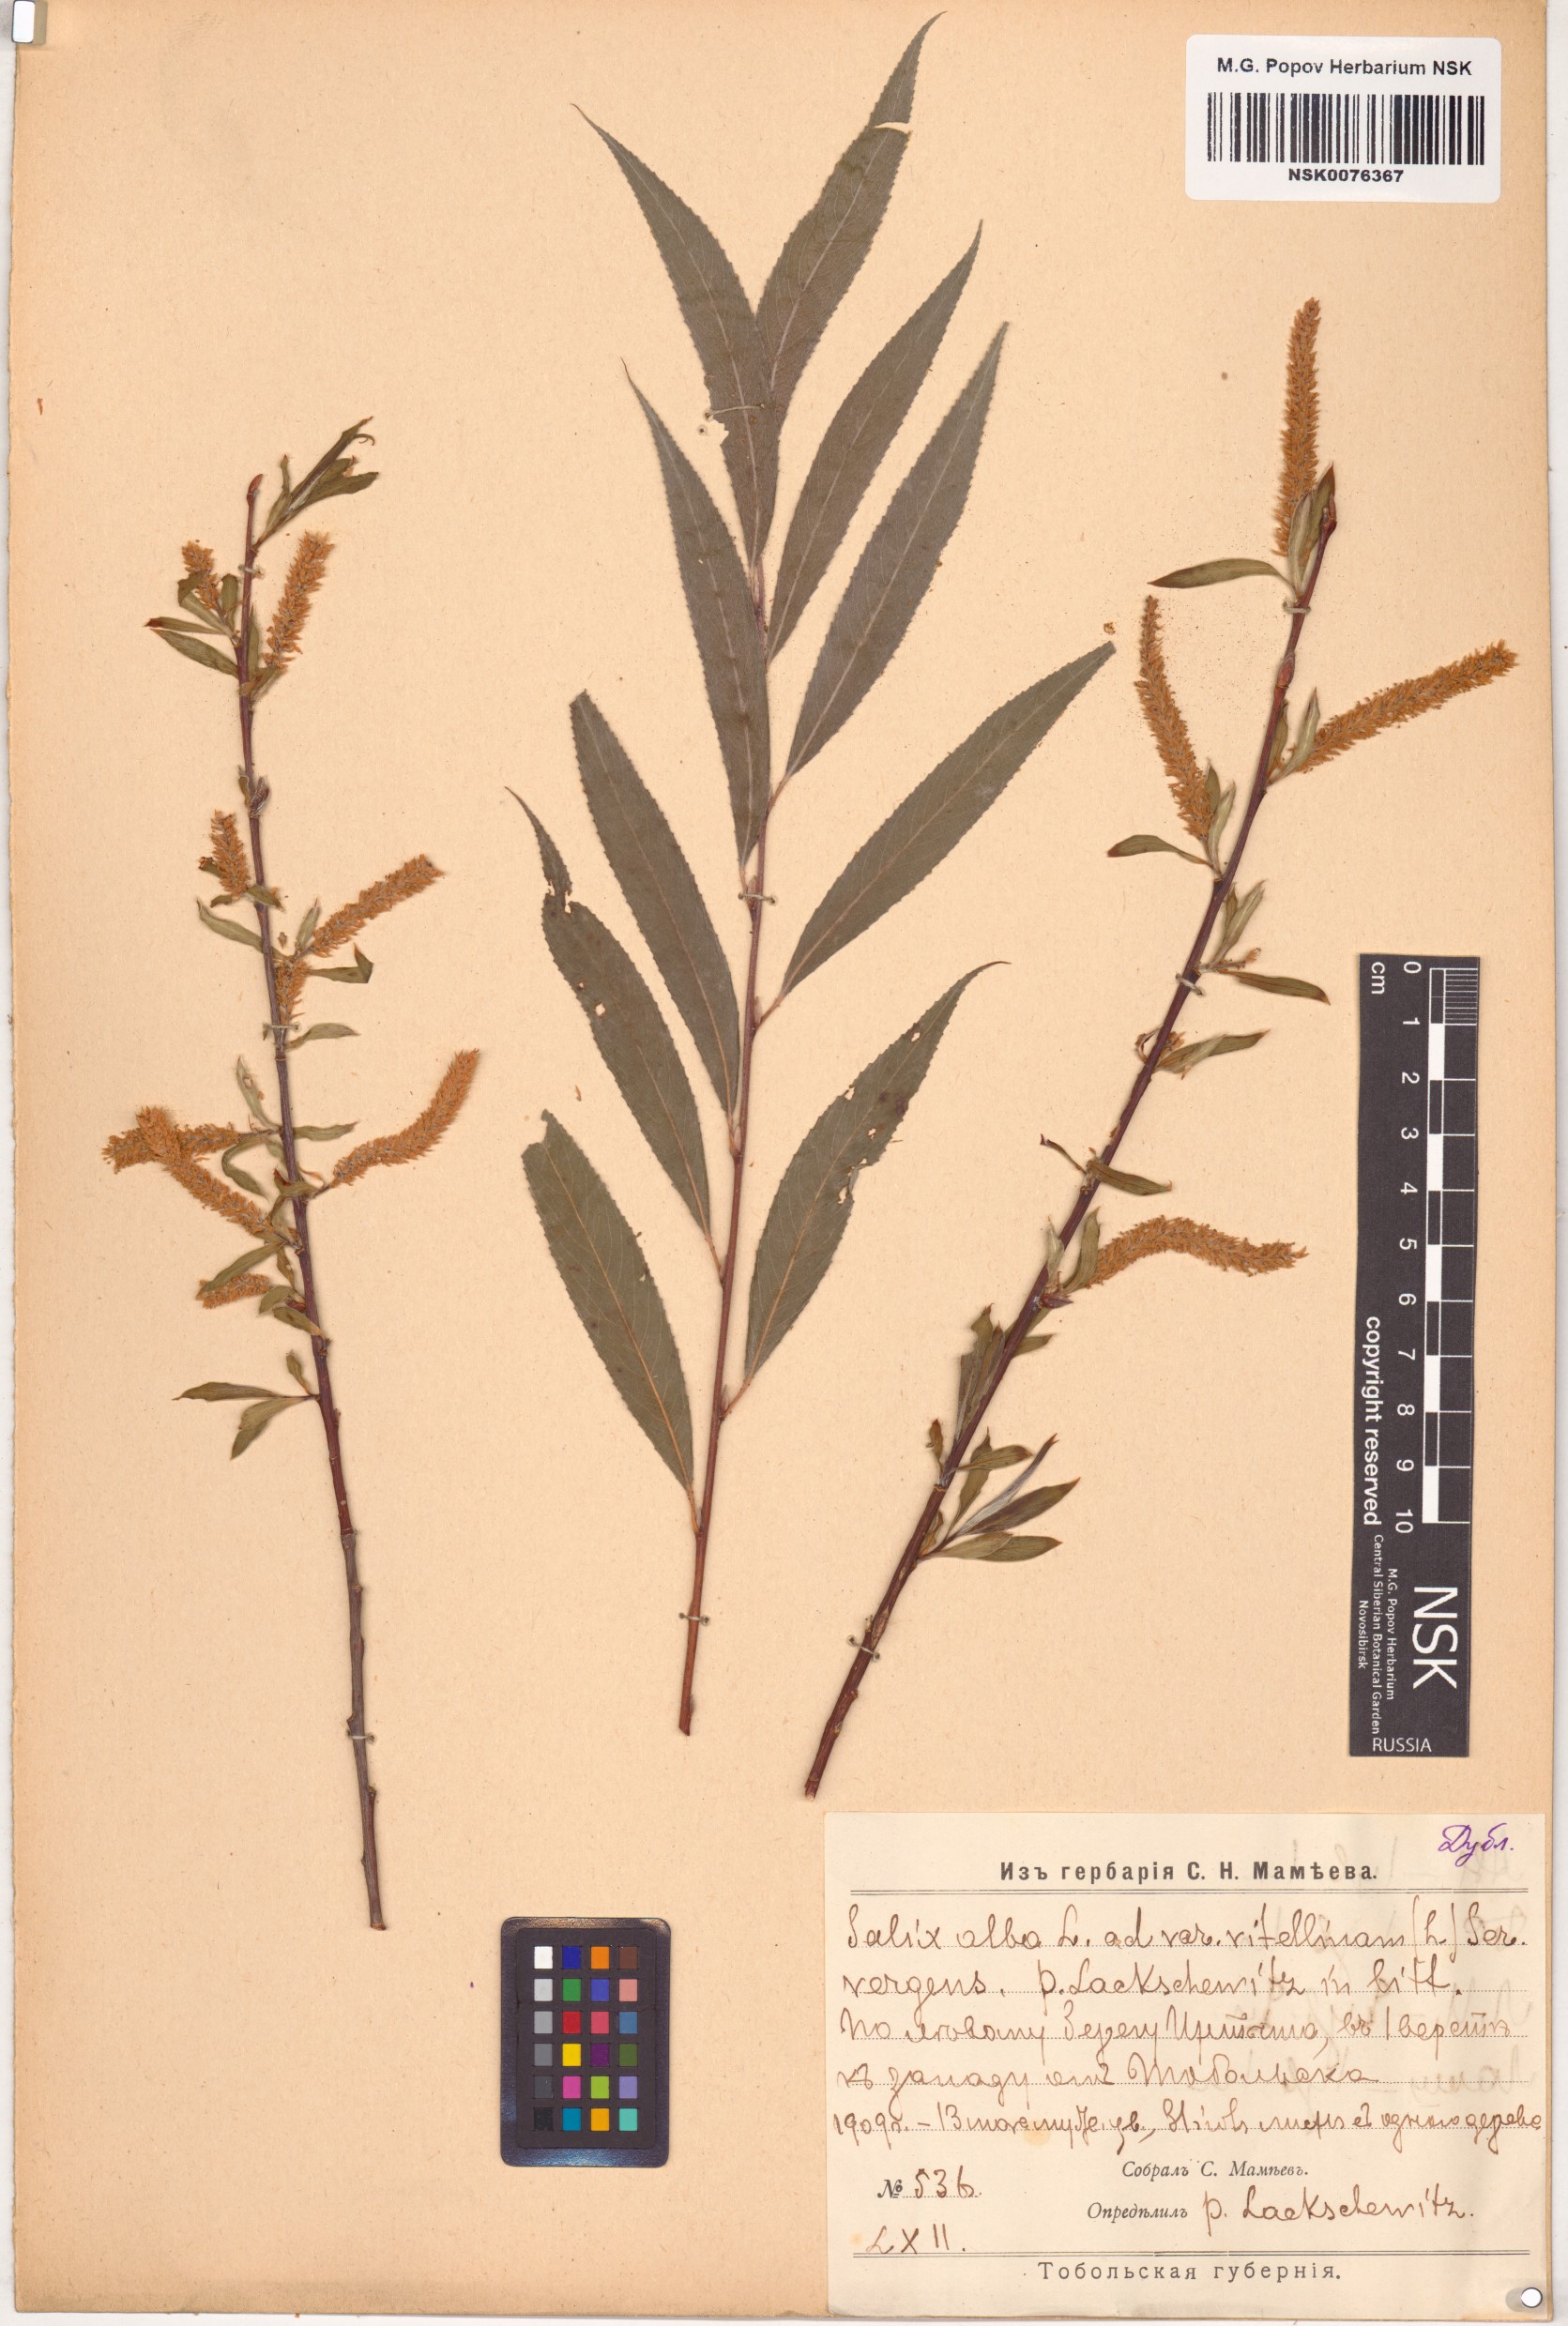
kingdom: Plantae
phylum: Tracheophyta
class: Magnoliopsida
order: Malpighiales
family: Salicaceae
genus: Salix
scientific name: Salix alba
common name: White willow
